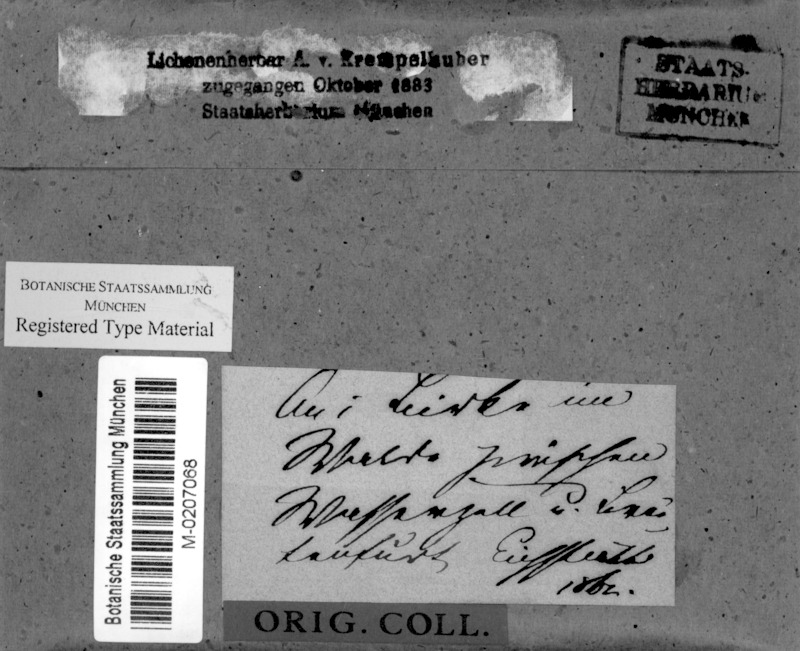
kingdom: Fungi
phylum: Ascomycota
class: Dothideomycetes
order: Trypetheliales
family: Trypetheliaceae
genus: Arthopyrenia
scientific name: Arthopyrenia fallaciosa
